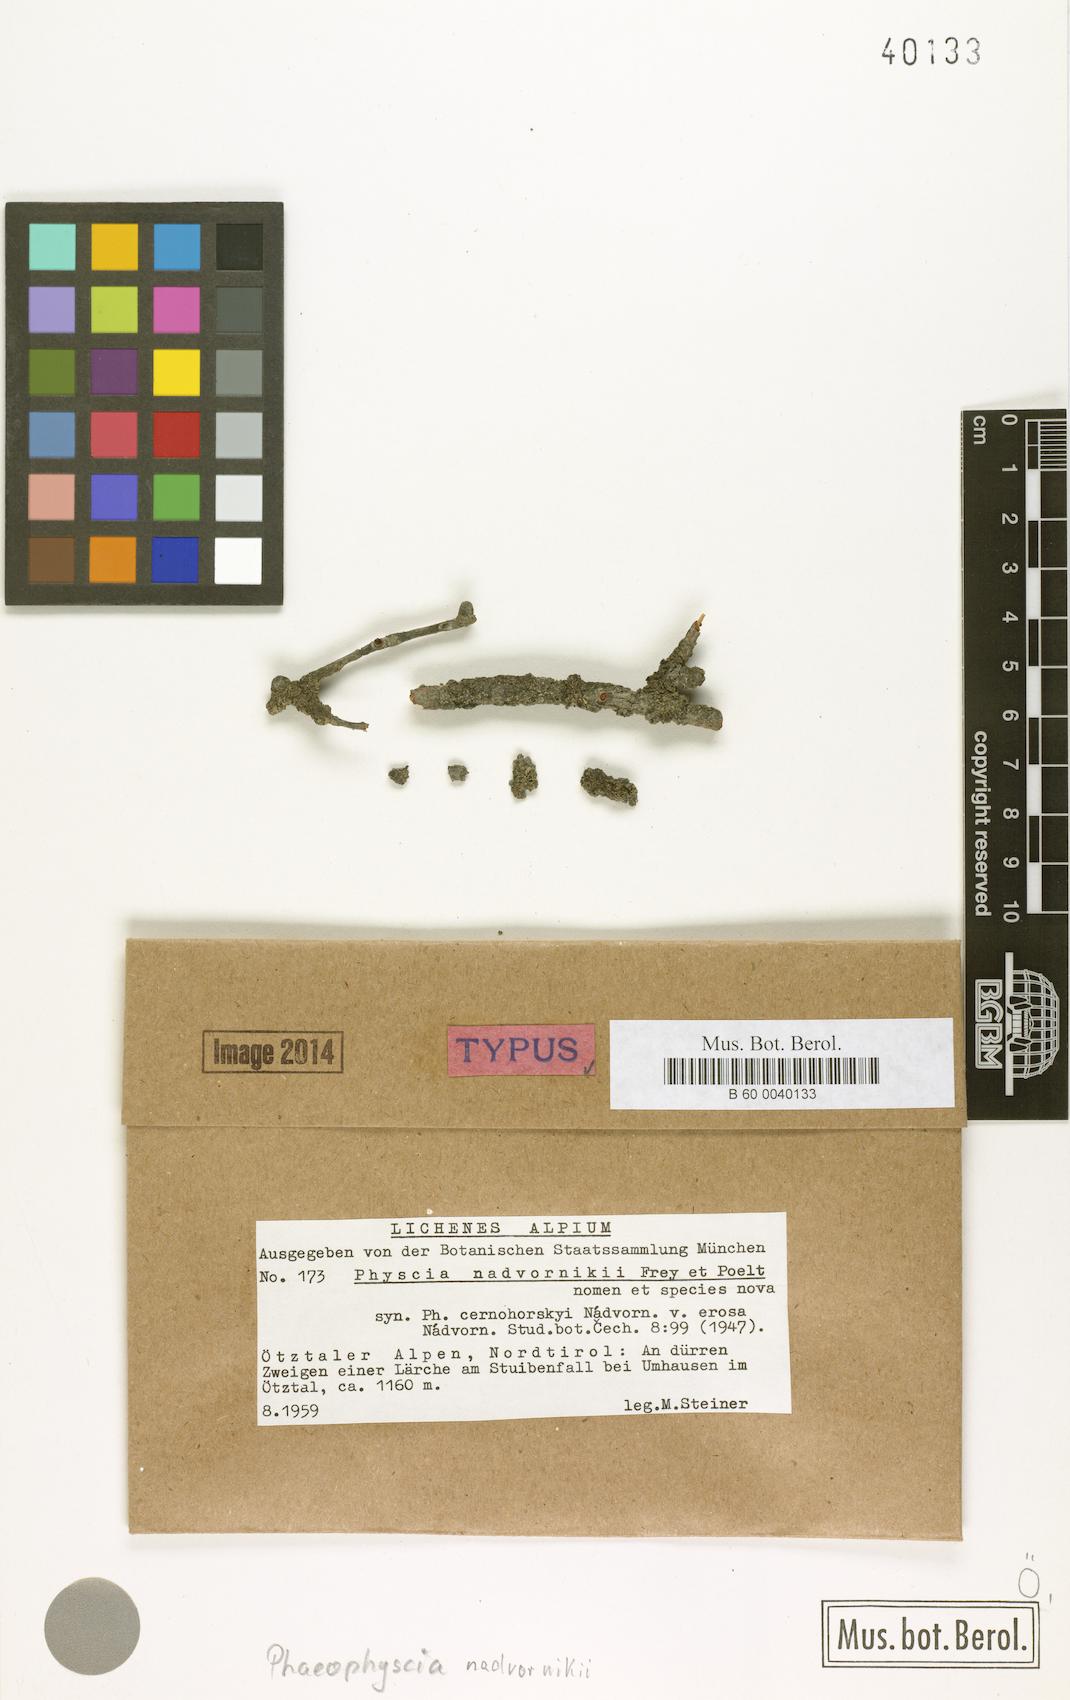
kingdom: Fungi
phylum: Ascomycota
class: Lecanoromycetes
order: Caliciales
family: Physciaceae
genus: Phaeophyscia
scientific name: Phaeophyscia kairamoi
